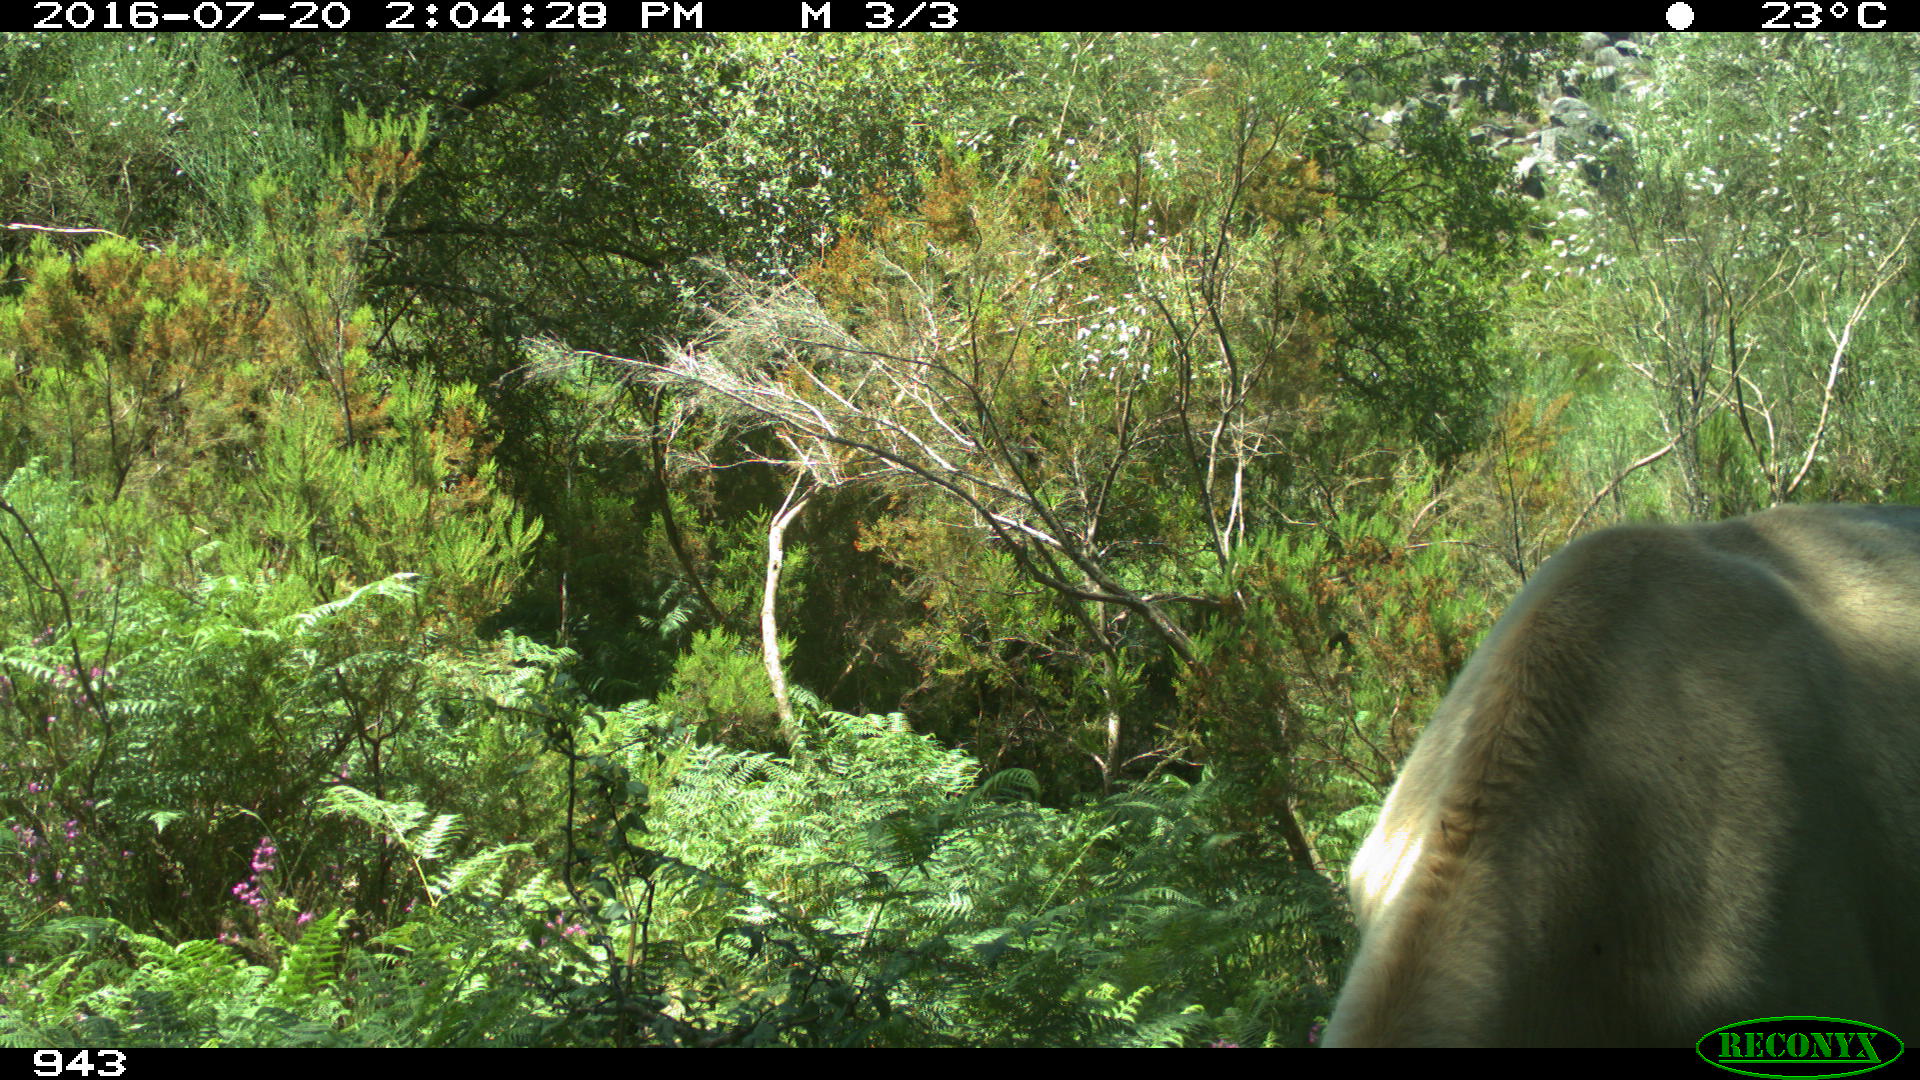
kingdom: Animalia
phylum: Chordata
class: Mammalia
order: Artiodactyla
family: Bovidae
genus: Bos
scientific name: Bos taurus
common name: Domesticated cattle
